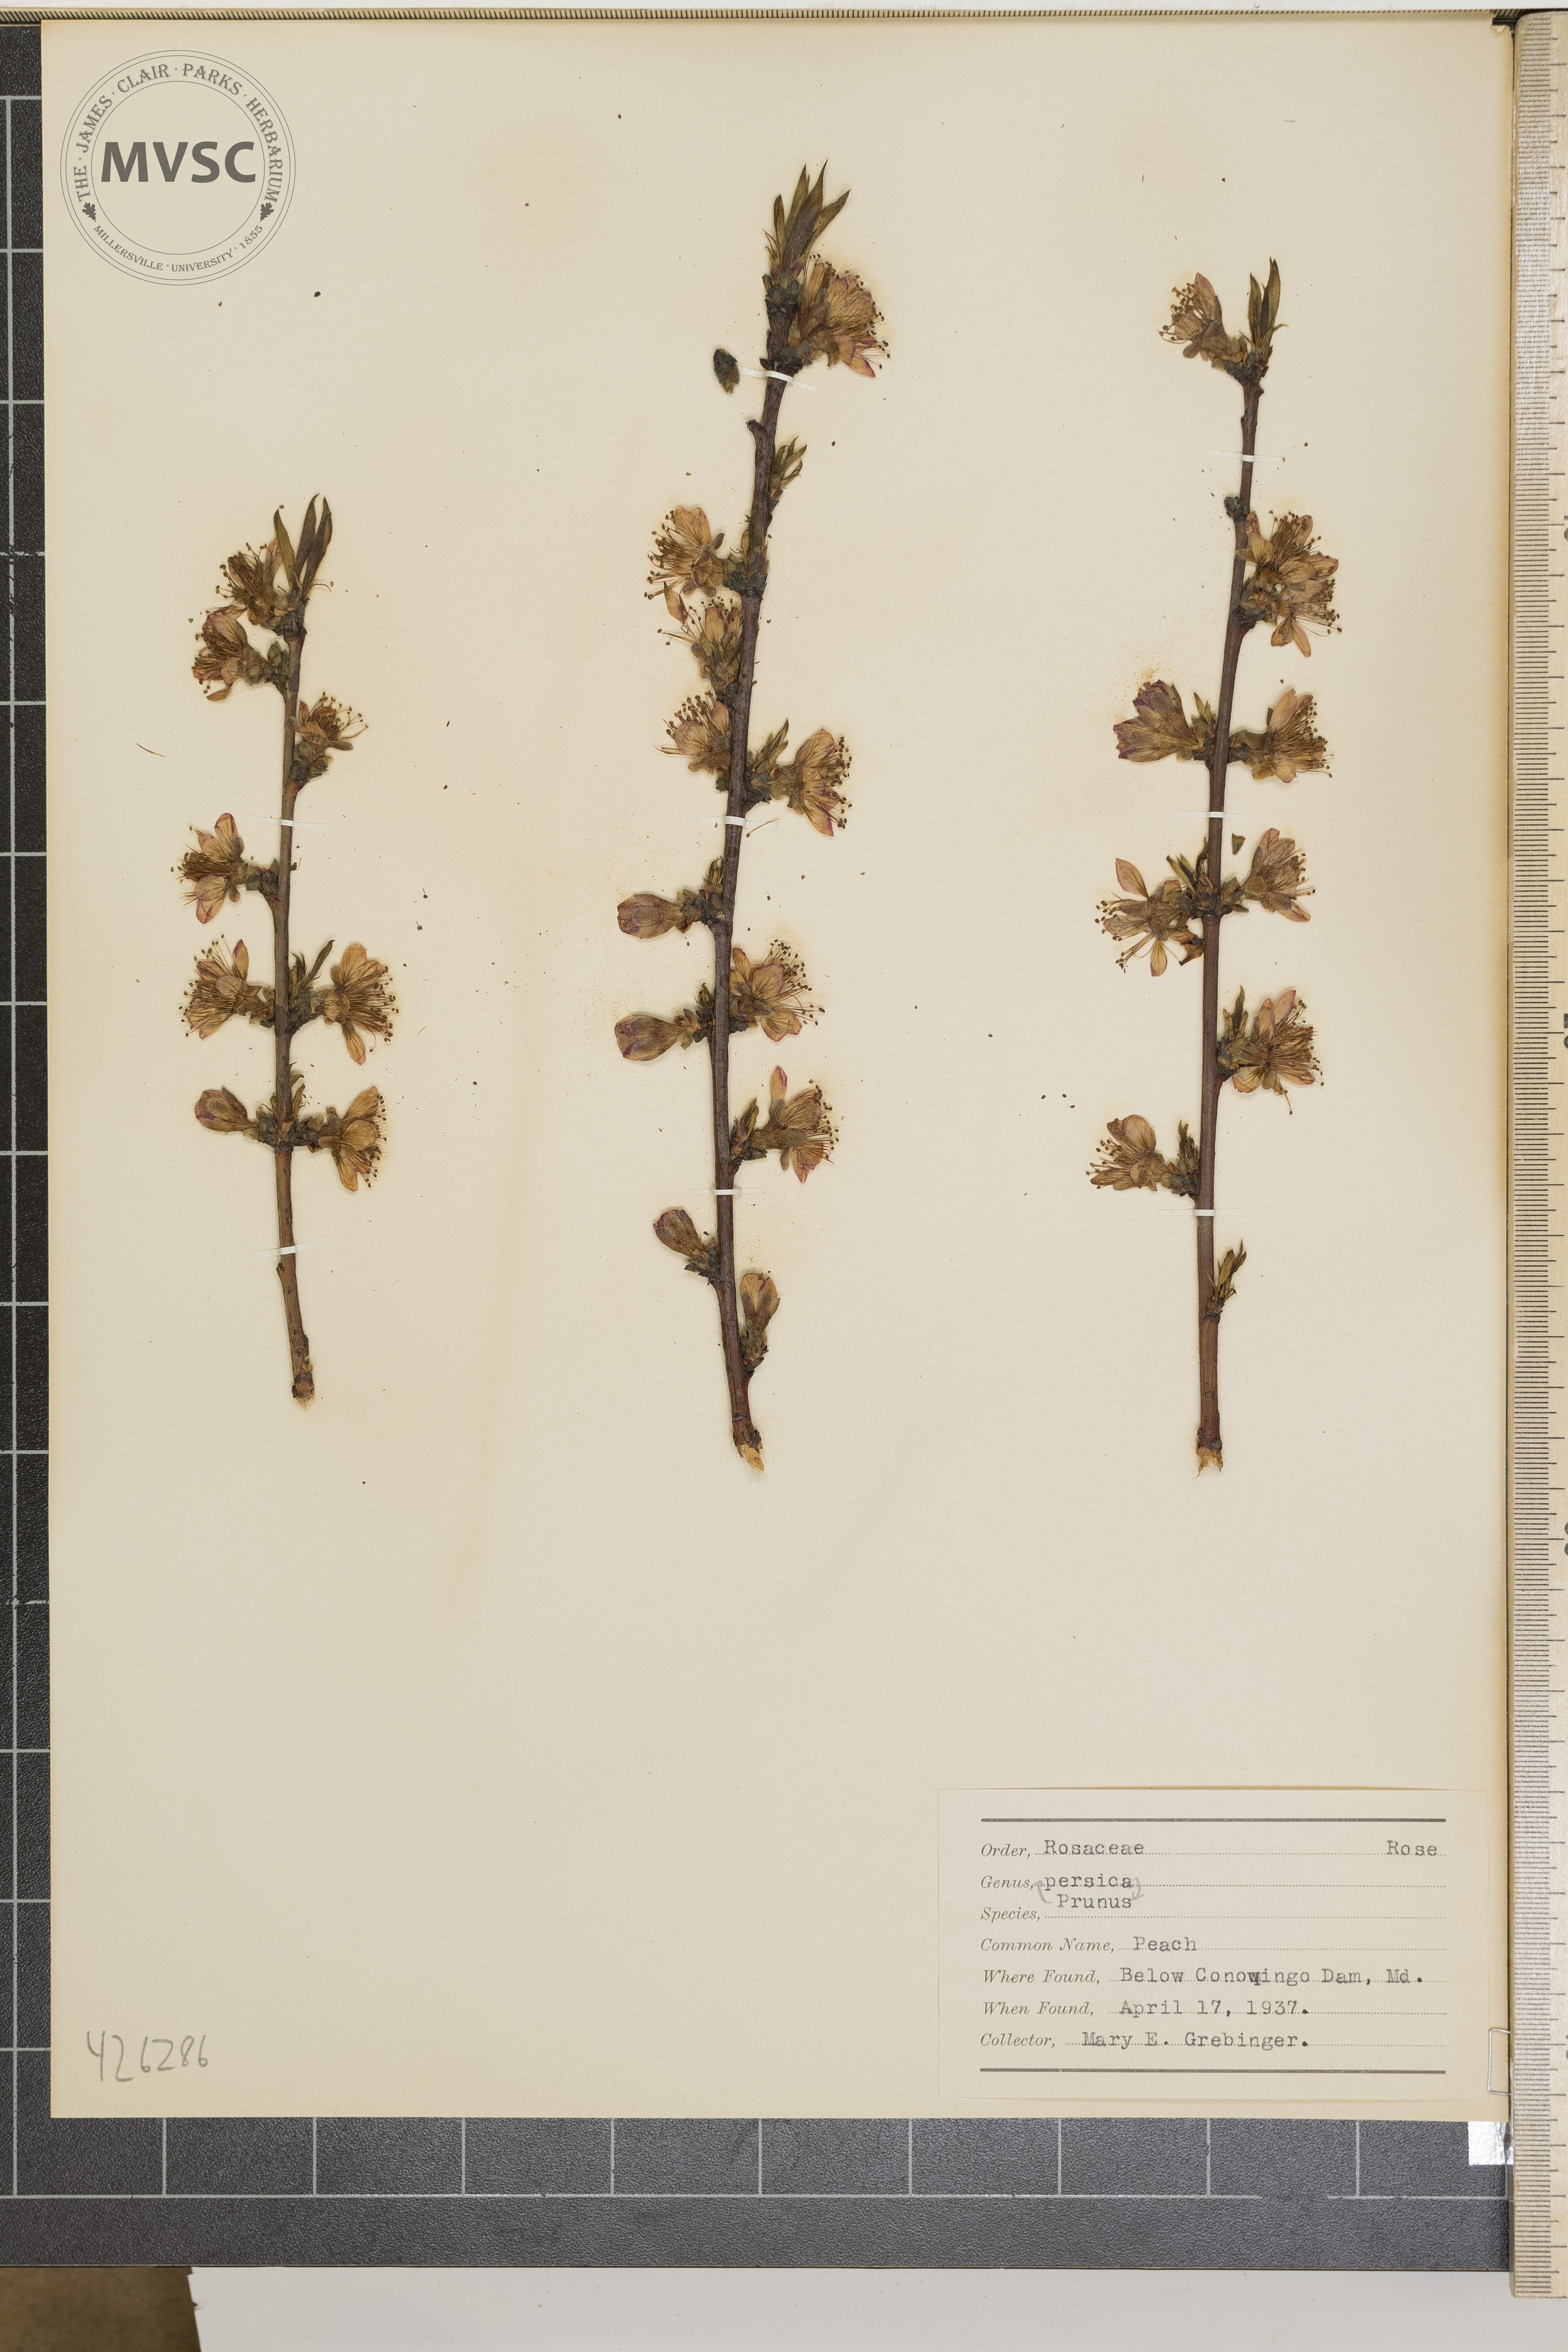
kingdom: Plantae
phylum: Tracheophyta
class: Magnoliopsida
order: Rosales
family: Rosaceae
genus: Prunus
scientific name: Prunus persica
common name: Peach
